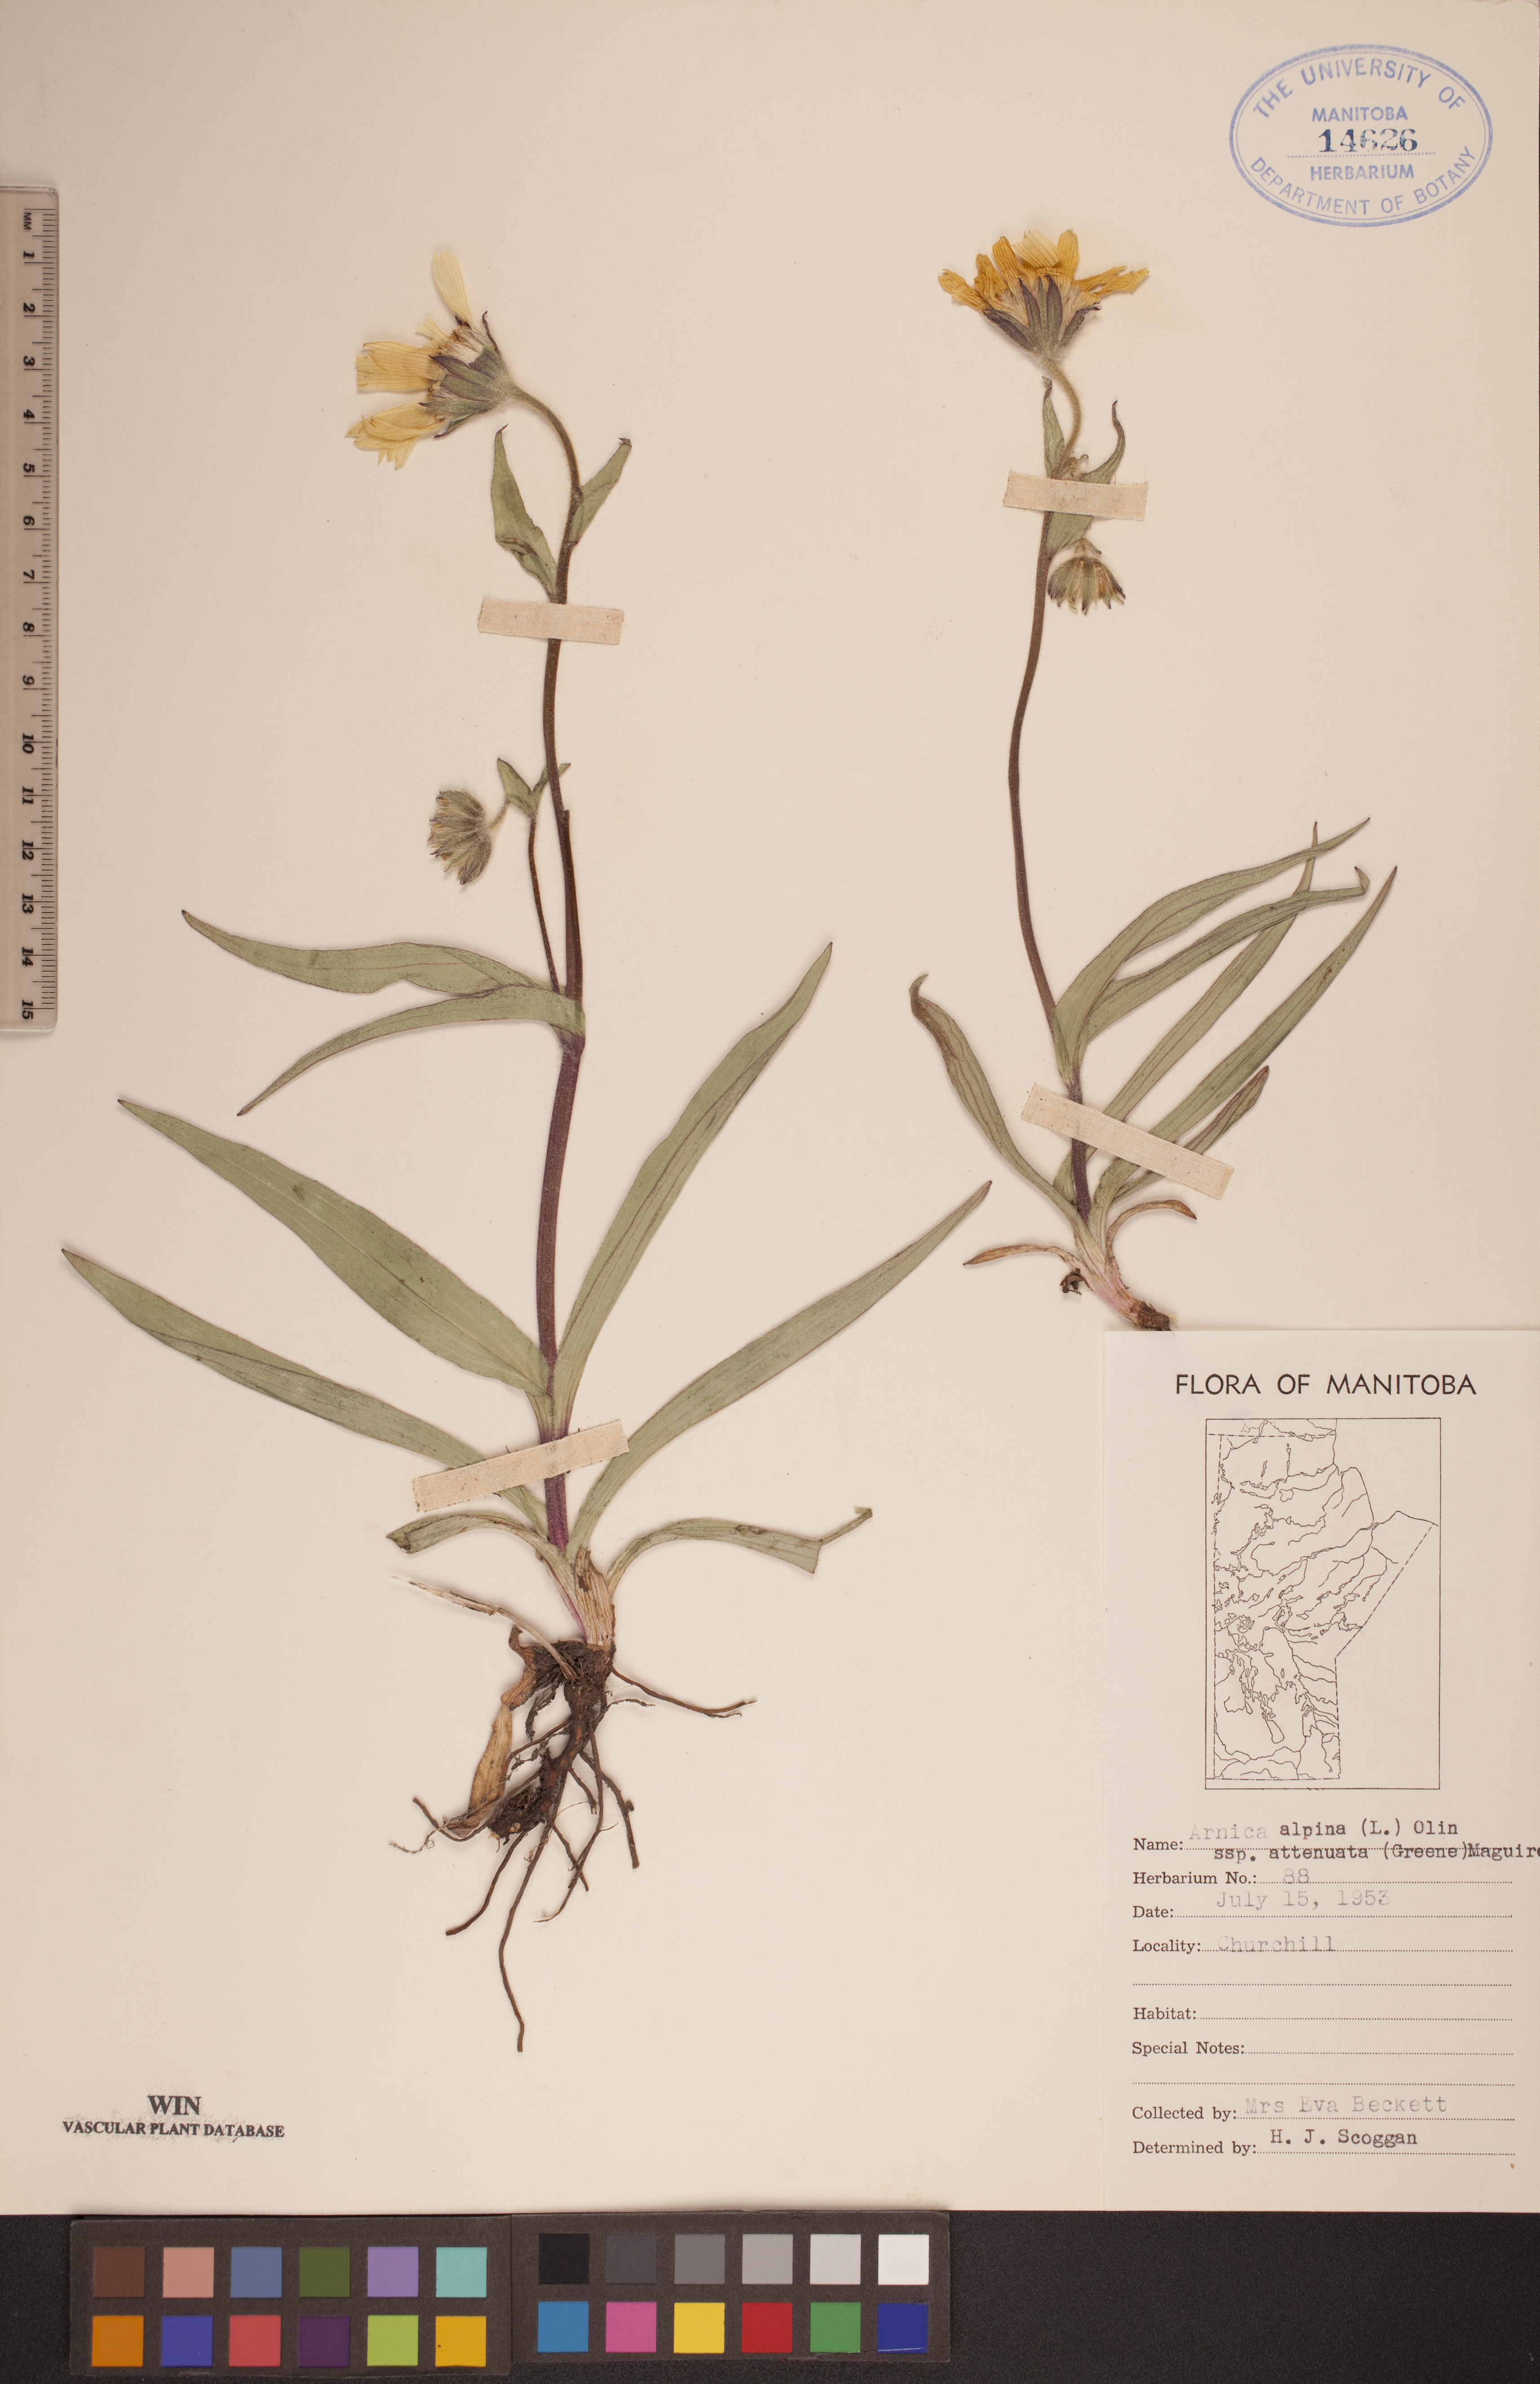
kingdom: Plantae
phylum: Tracheophyta
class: Magnoliopsida
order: Asterales
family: Asteraceae
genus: Arnica
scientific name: Arnica angustifolia
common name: Arctic arnica
